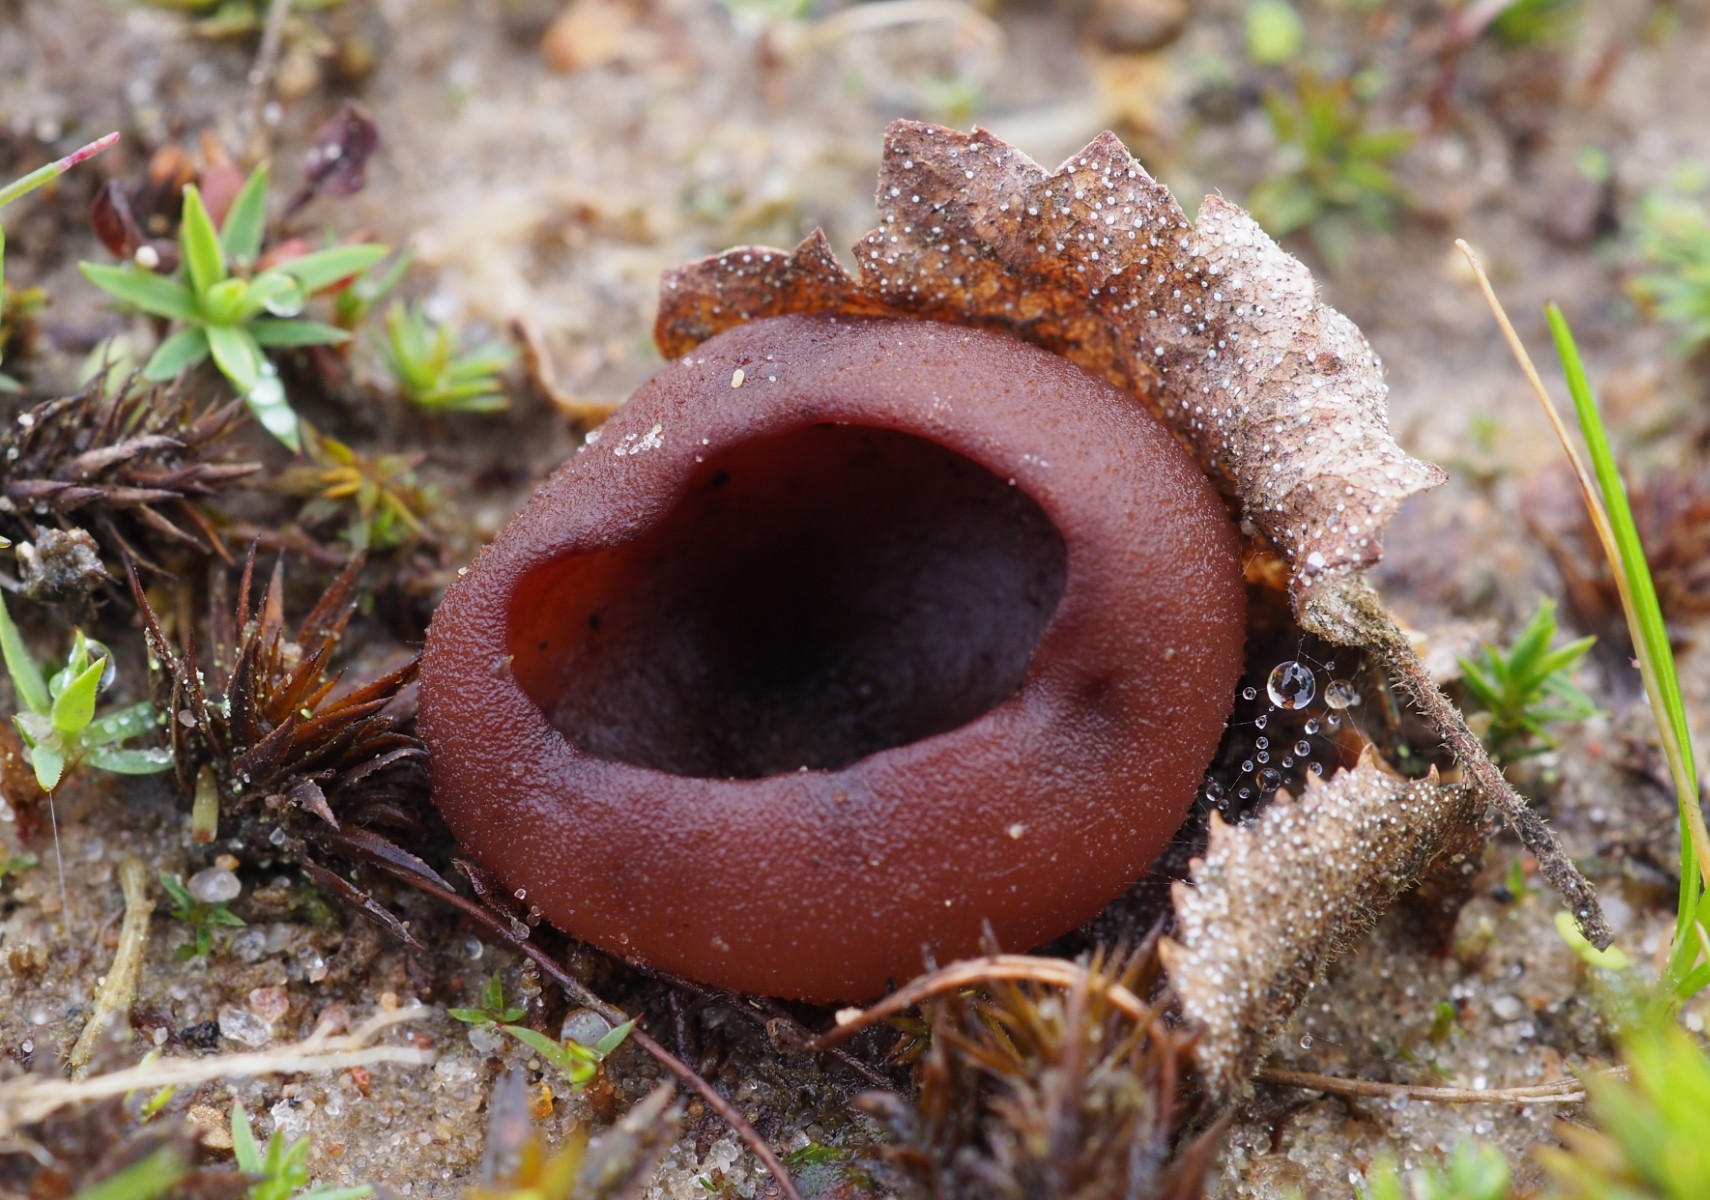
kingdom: Fungi
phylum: Ascomycota
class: Pezizomycetes
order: Pezizales
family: Pezizaceae
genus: Legaliana
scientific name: Legaliana badia
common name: leverbrun bægersvamp
